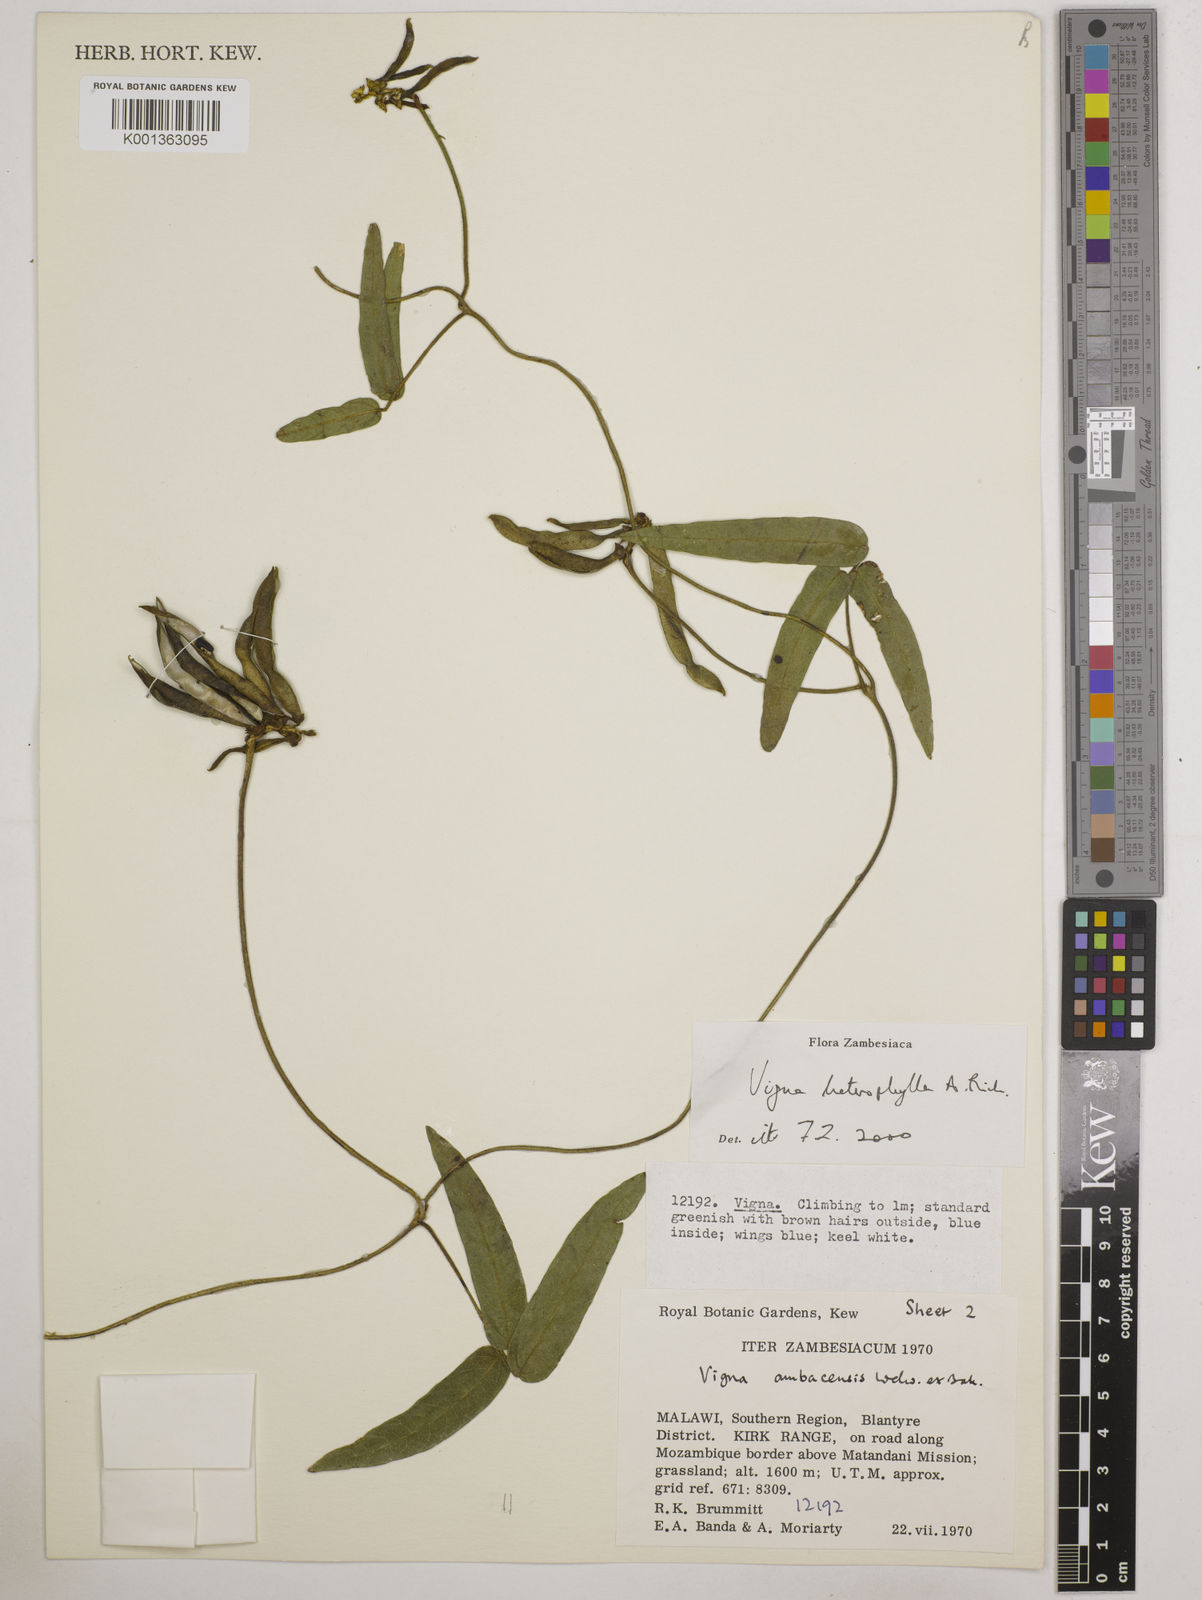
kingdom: Plantae
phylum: Tracheophyta
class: Magnoliopsida
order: Fabales
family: Fabaceae
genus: Vigna
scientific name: Vigna heterophylla
